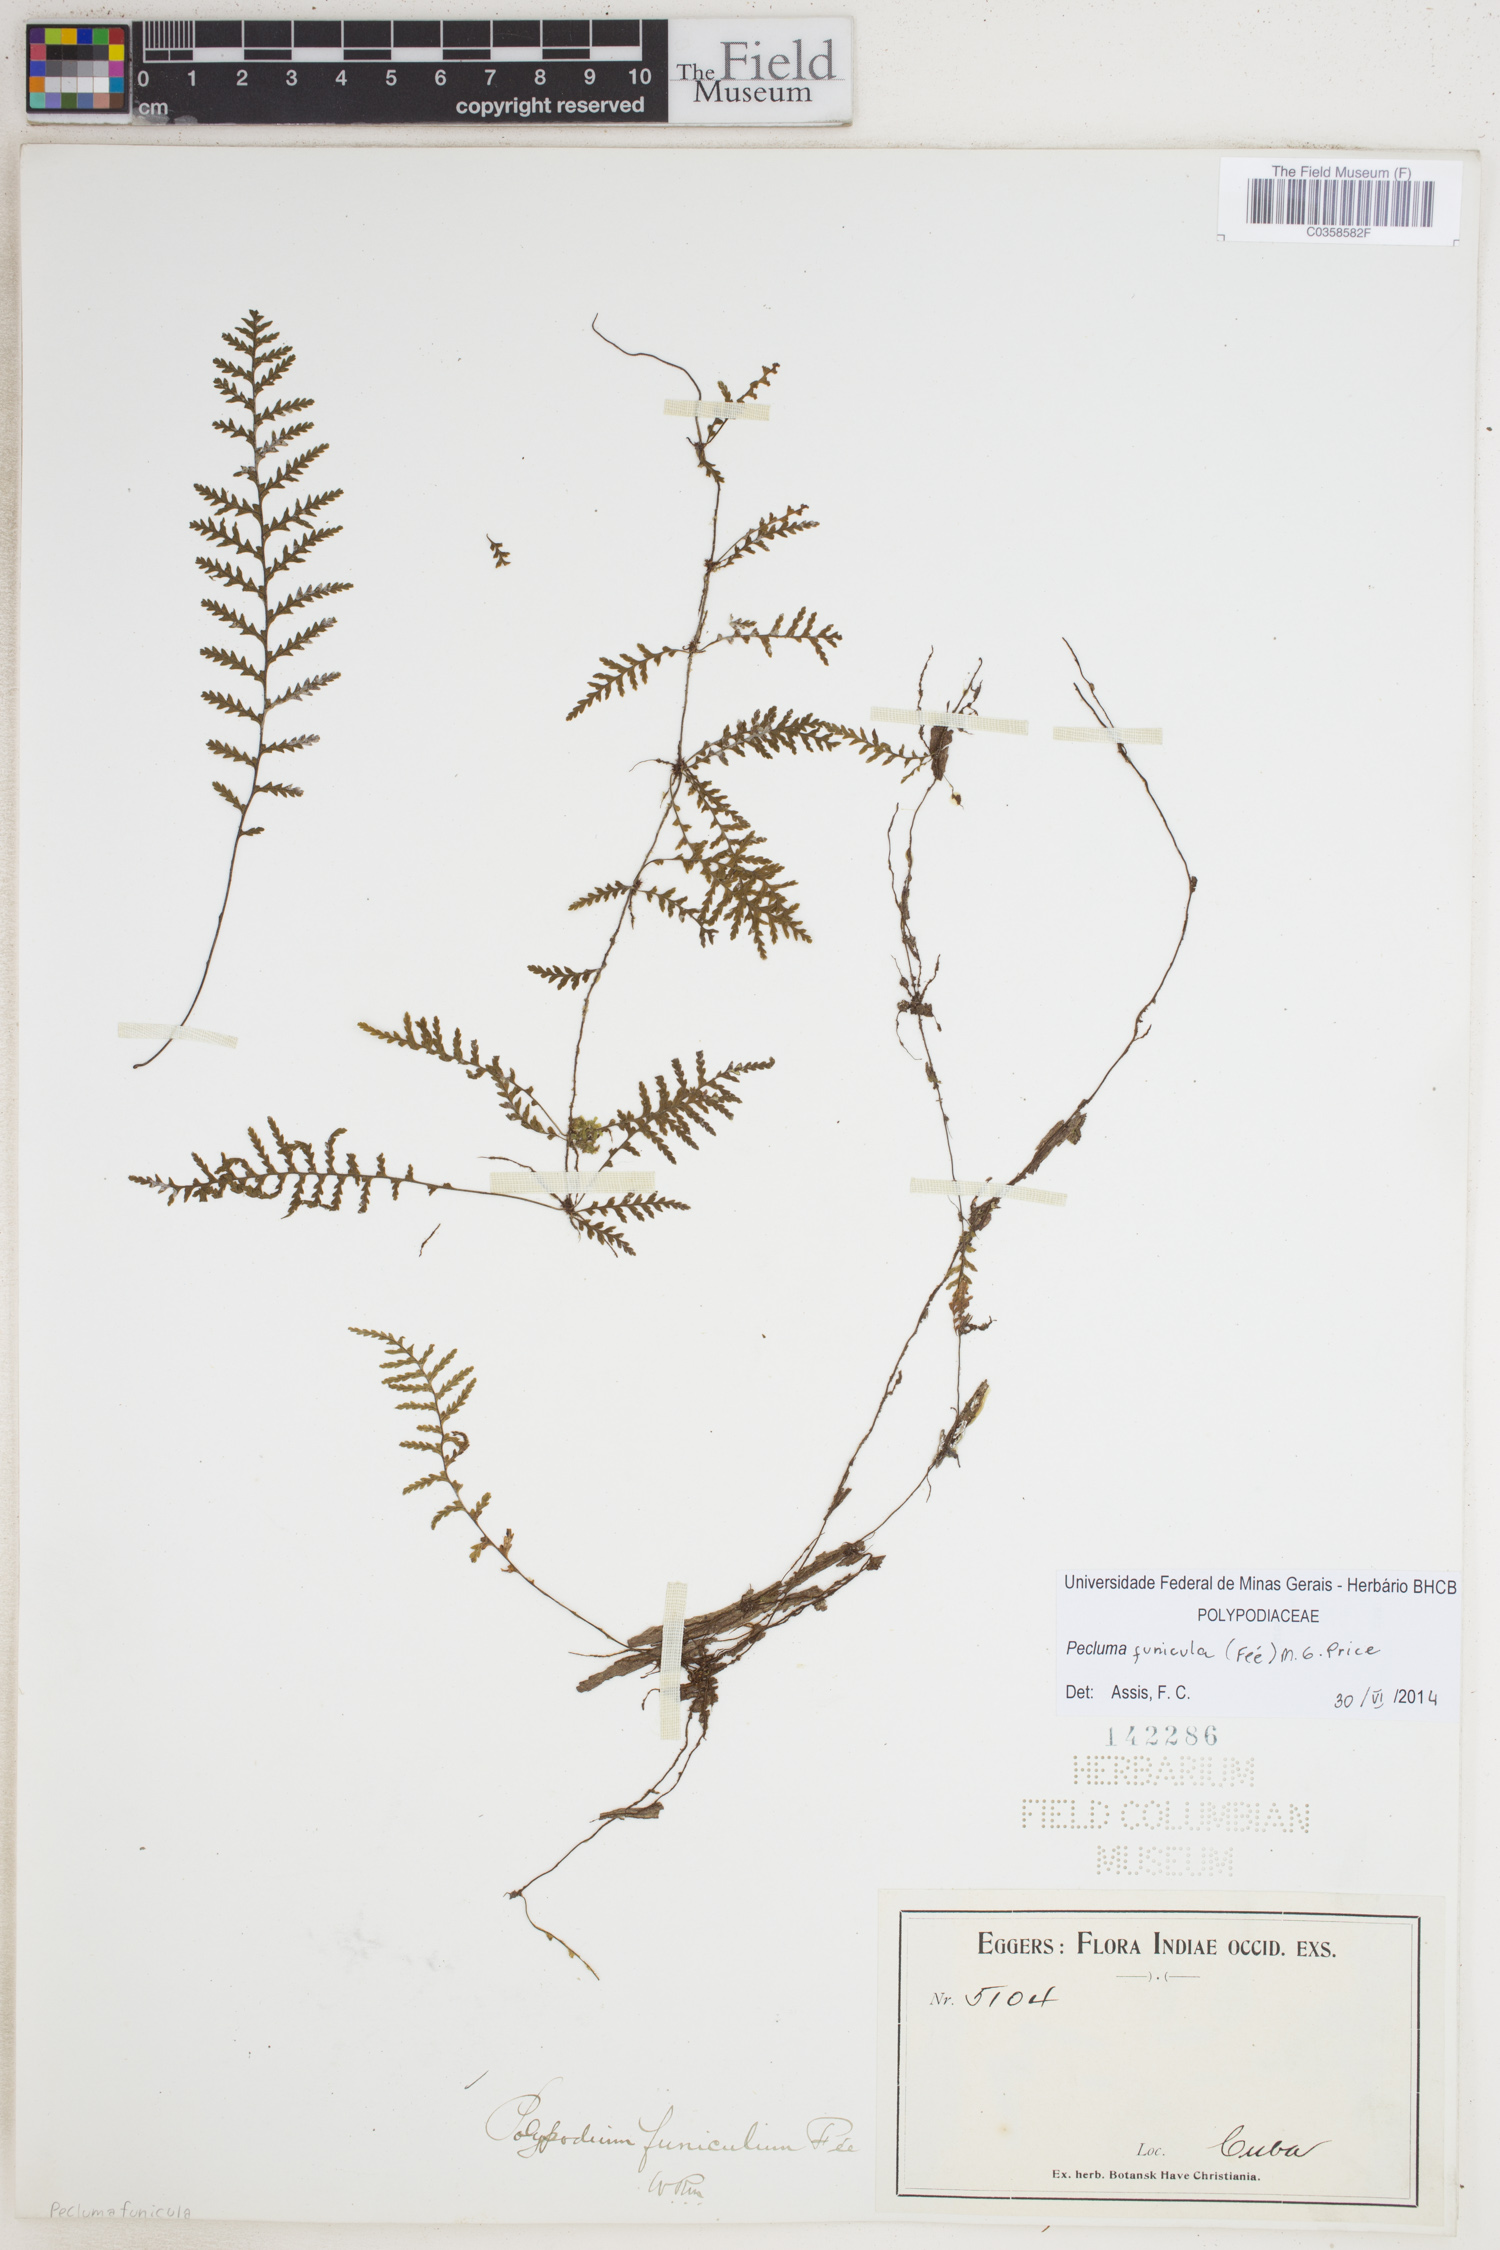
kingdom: Plantae
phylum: Tracheophyta
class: Polypodiopsida
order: Polypodiales
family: Polypodiaceae
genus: Pecluma
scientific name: Pecluma funicula
